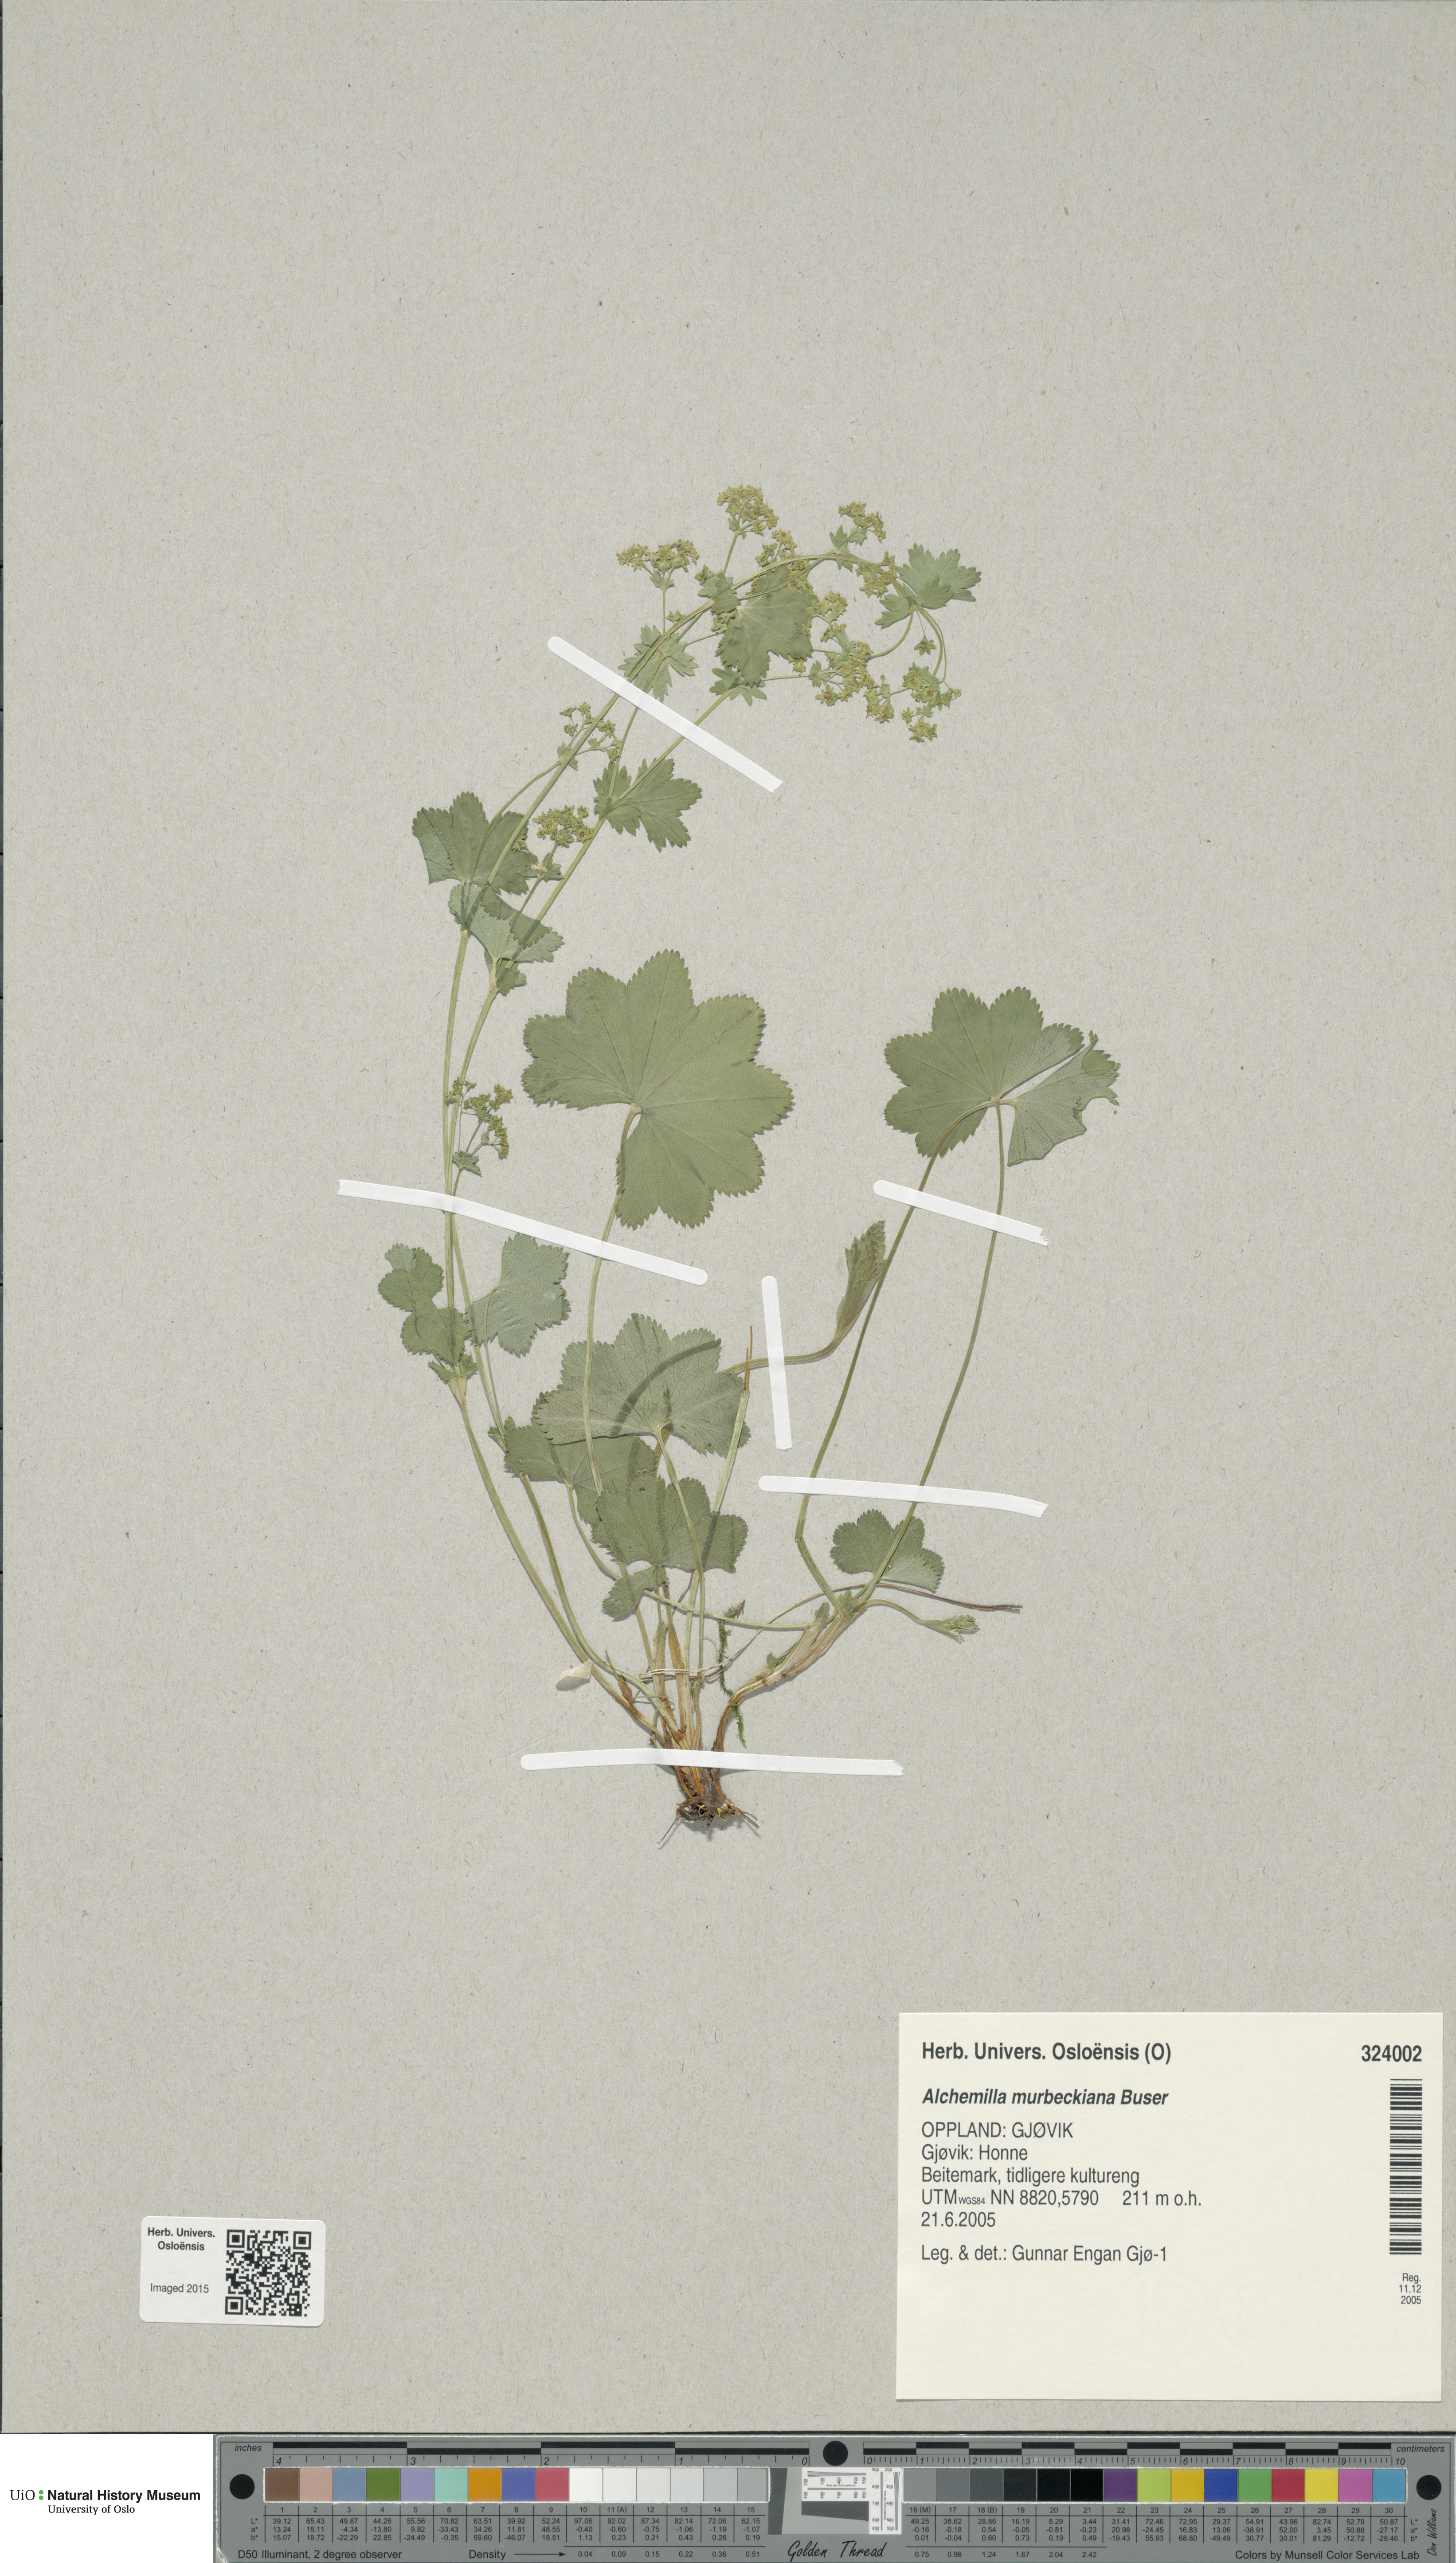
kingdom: Plantae
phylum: Tracheophyta
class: Magnoliopsida
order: Rosales
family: Rosaceae
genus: Alchemilla
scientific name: Alchemilla murbeckiana
